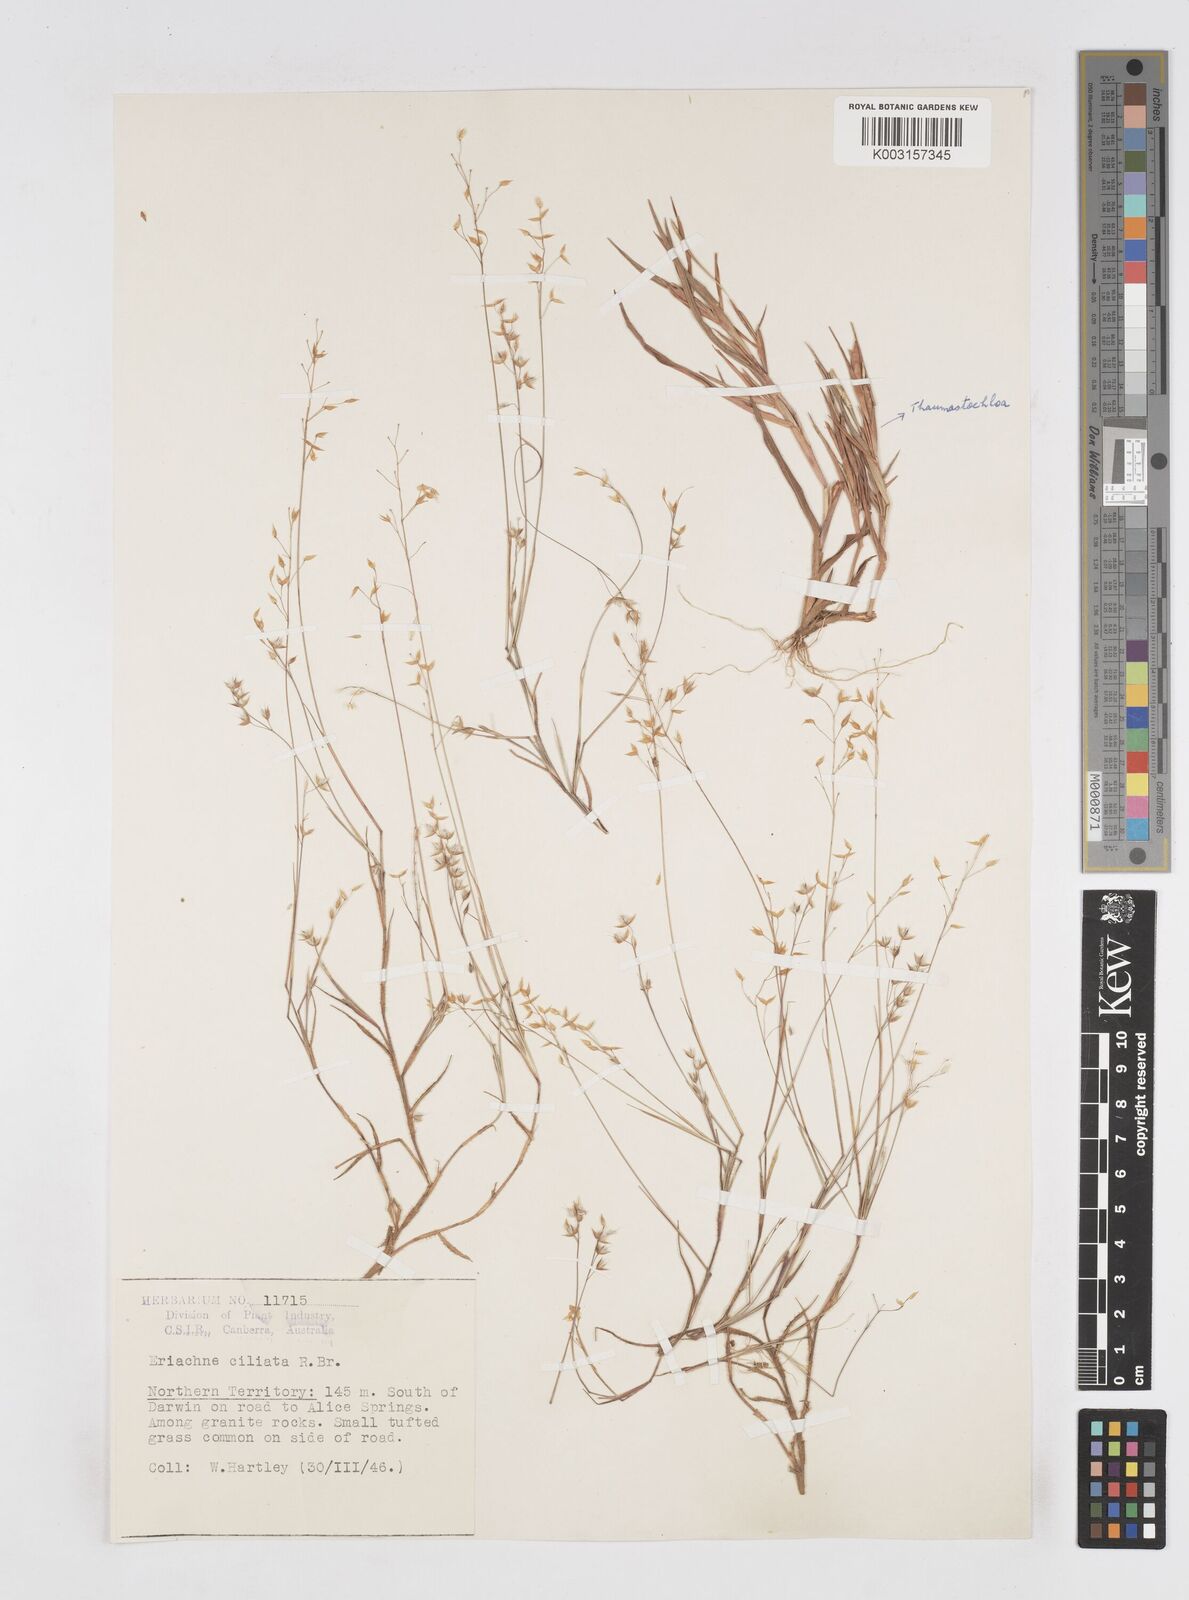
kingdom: Plantae
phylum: Tracheophyta
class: Liliopsida
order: Poales
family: Poaceae
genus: Eriachne
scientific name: Eriachne ciliata
